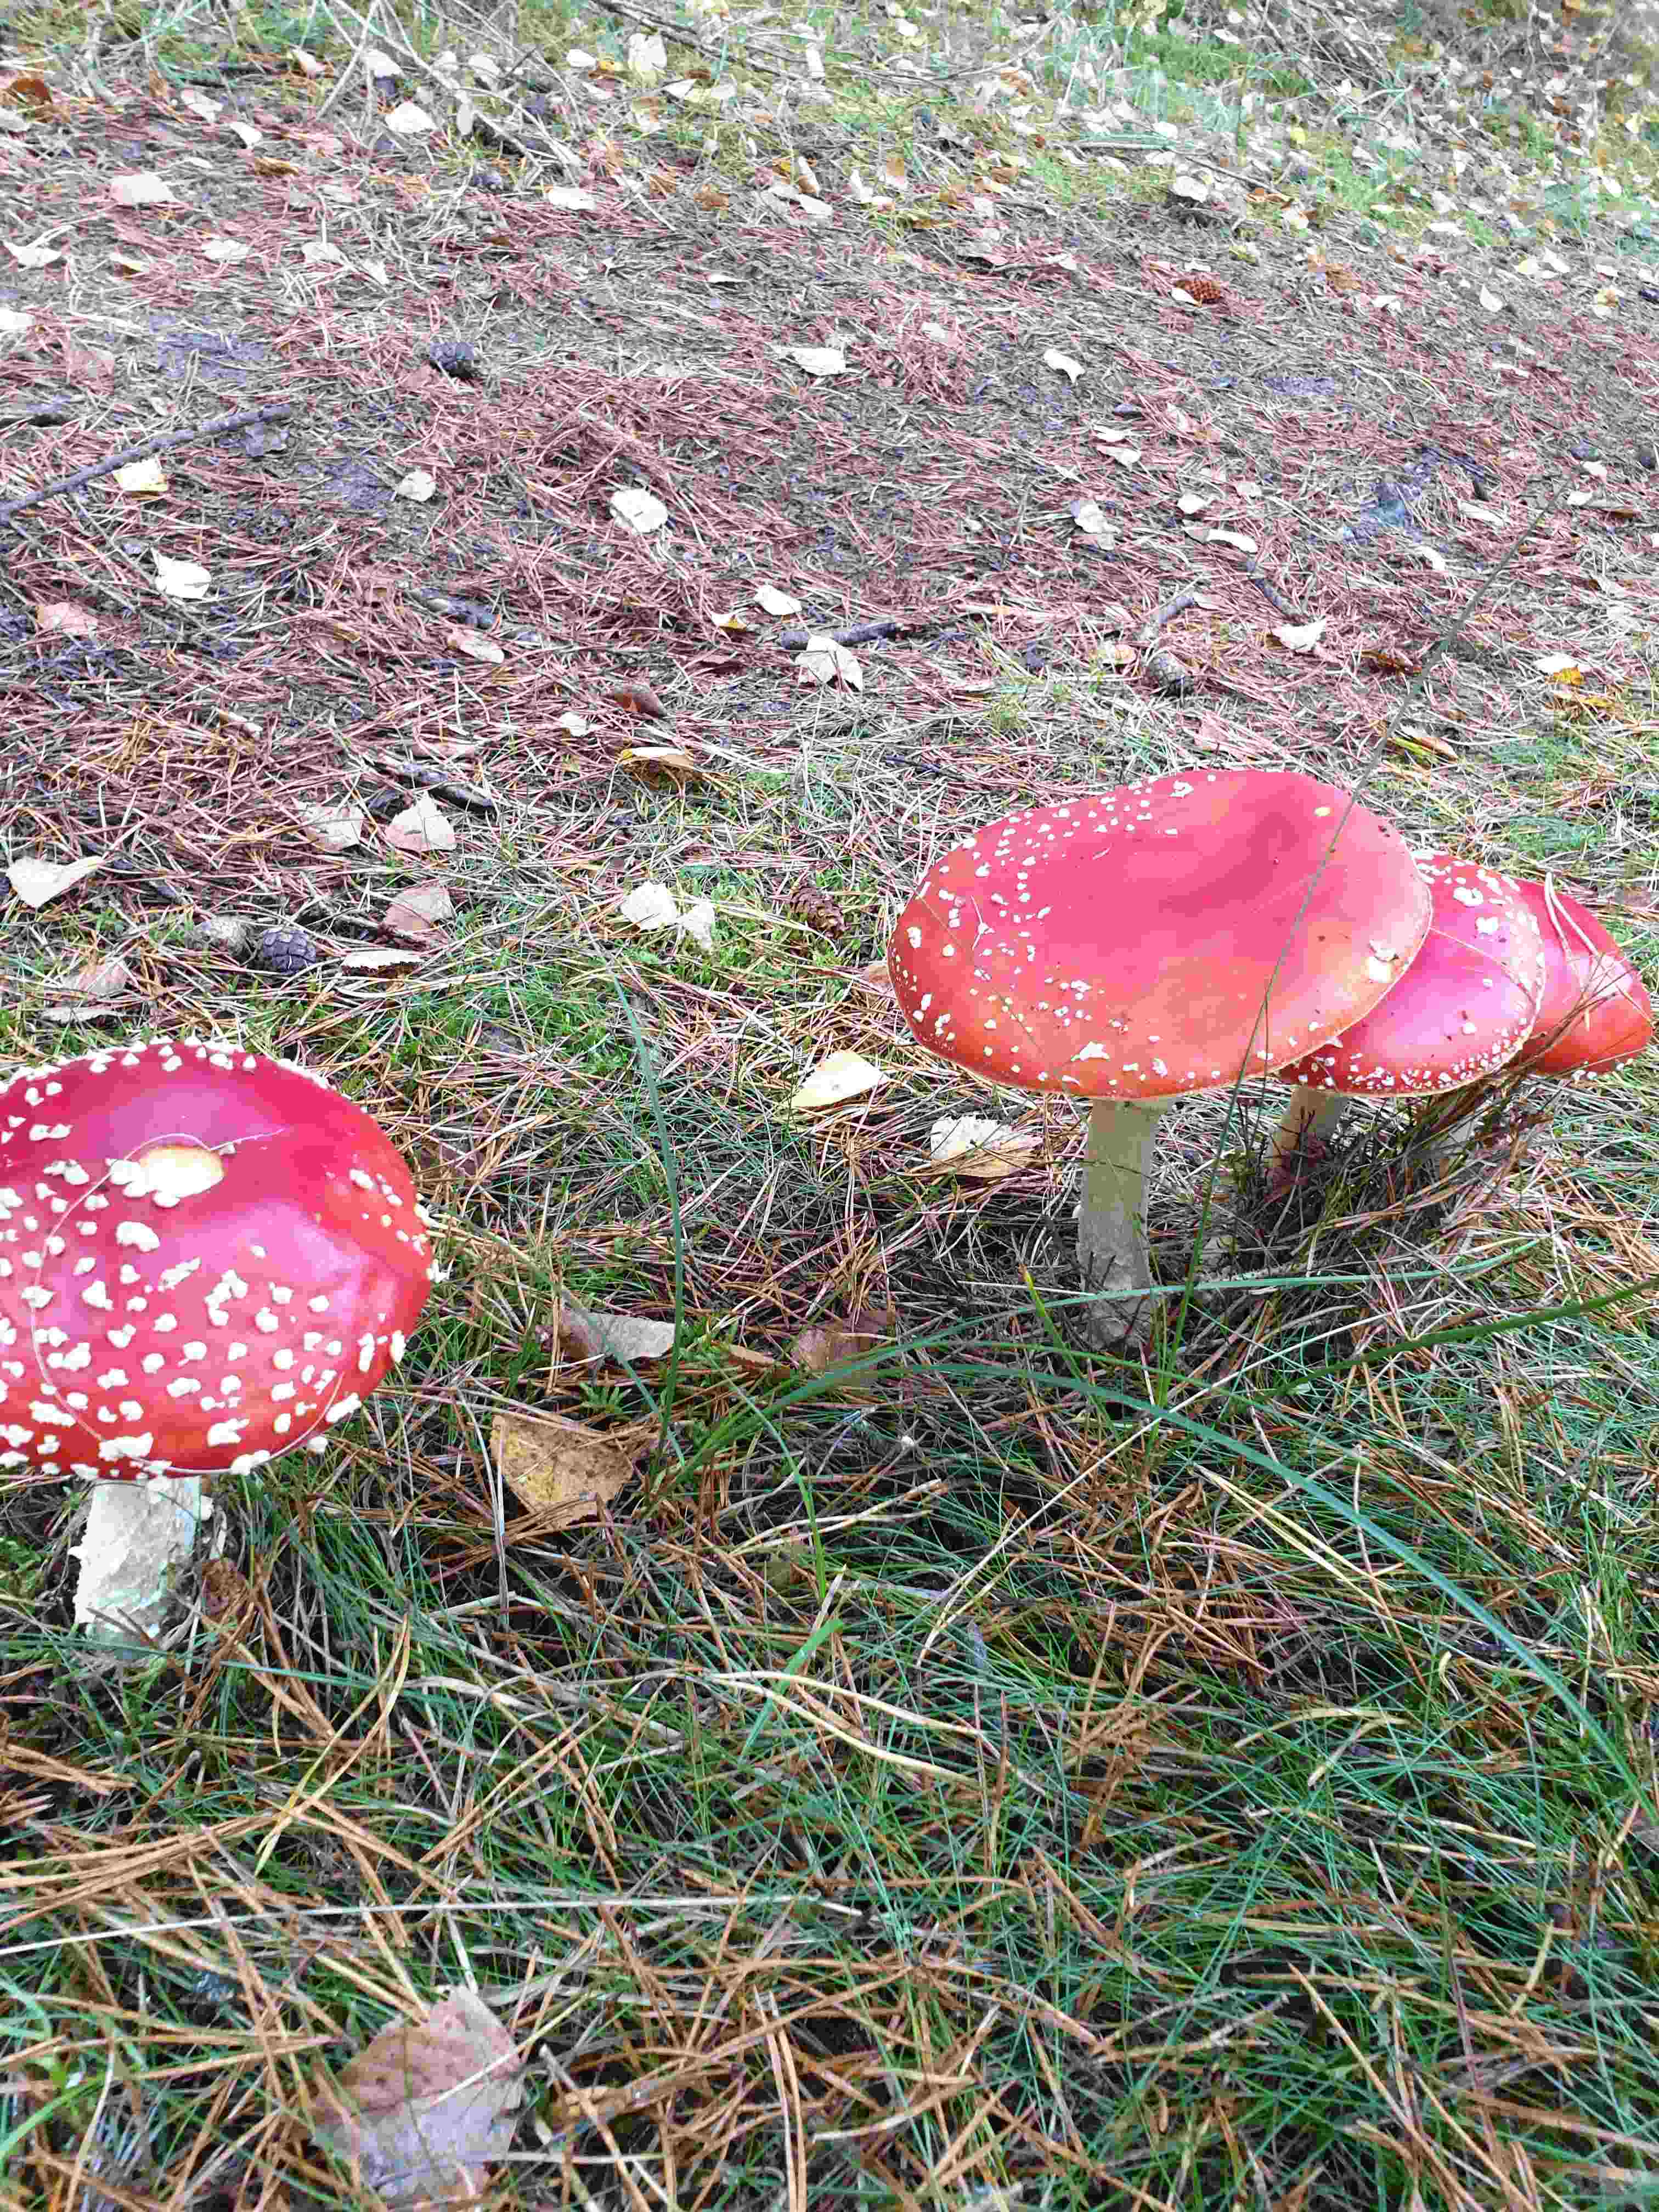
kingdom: Fungi
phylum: Basidiomycota
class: Agaricomycetes
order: Agaricales
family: Amanitaceae
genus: Amanita
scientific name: Amanita muscaria
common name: rød fluesvamp
